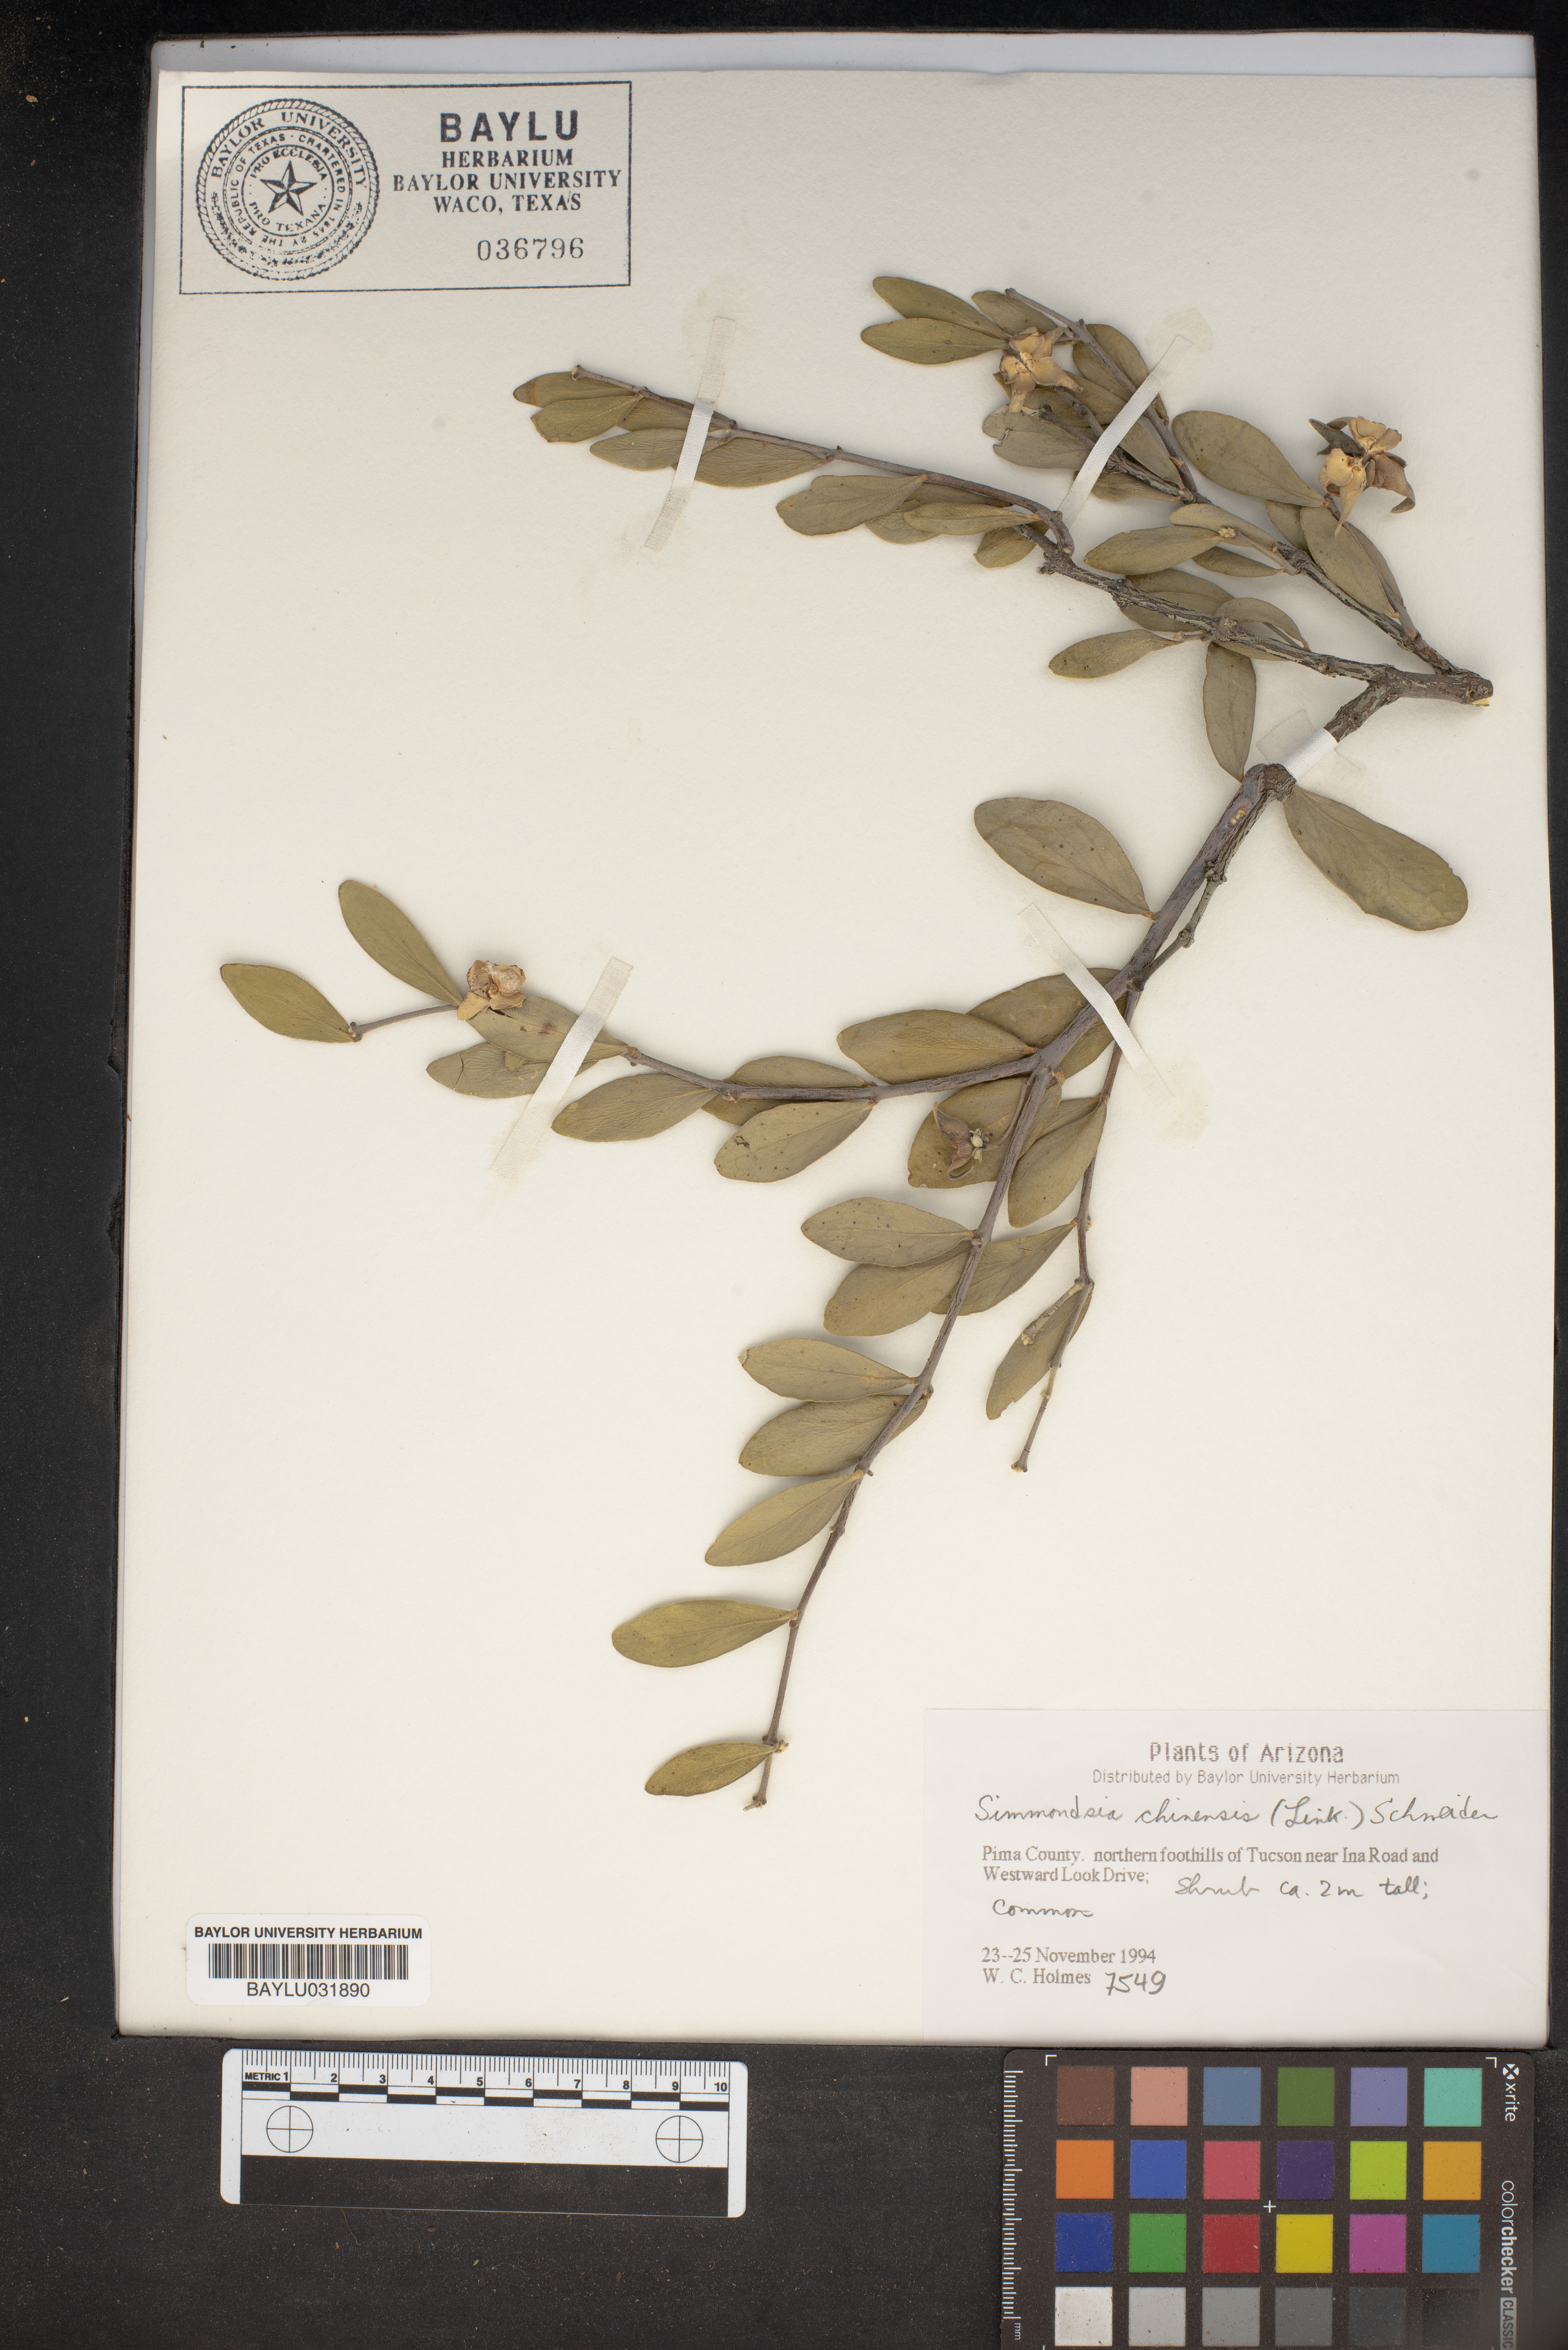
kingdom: Plantae
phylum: Tracheophyta
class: Magnoliopsida
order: Caryophyllales
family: Simmondsiaceae
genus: Simmondsia
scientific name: Simmondsia chinensis
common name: Jojoba
